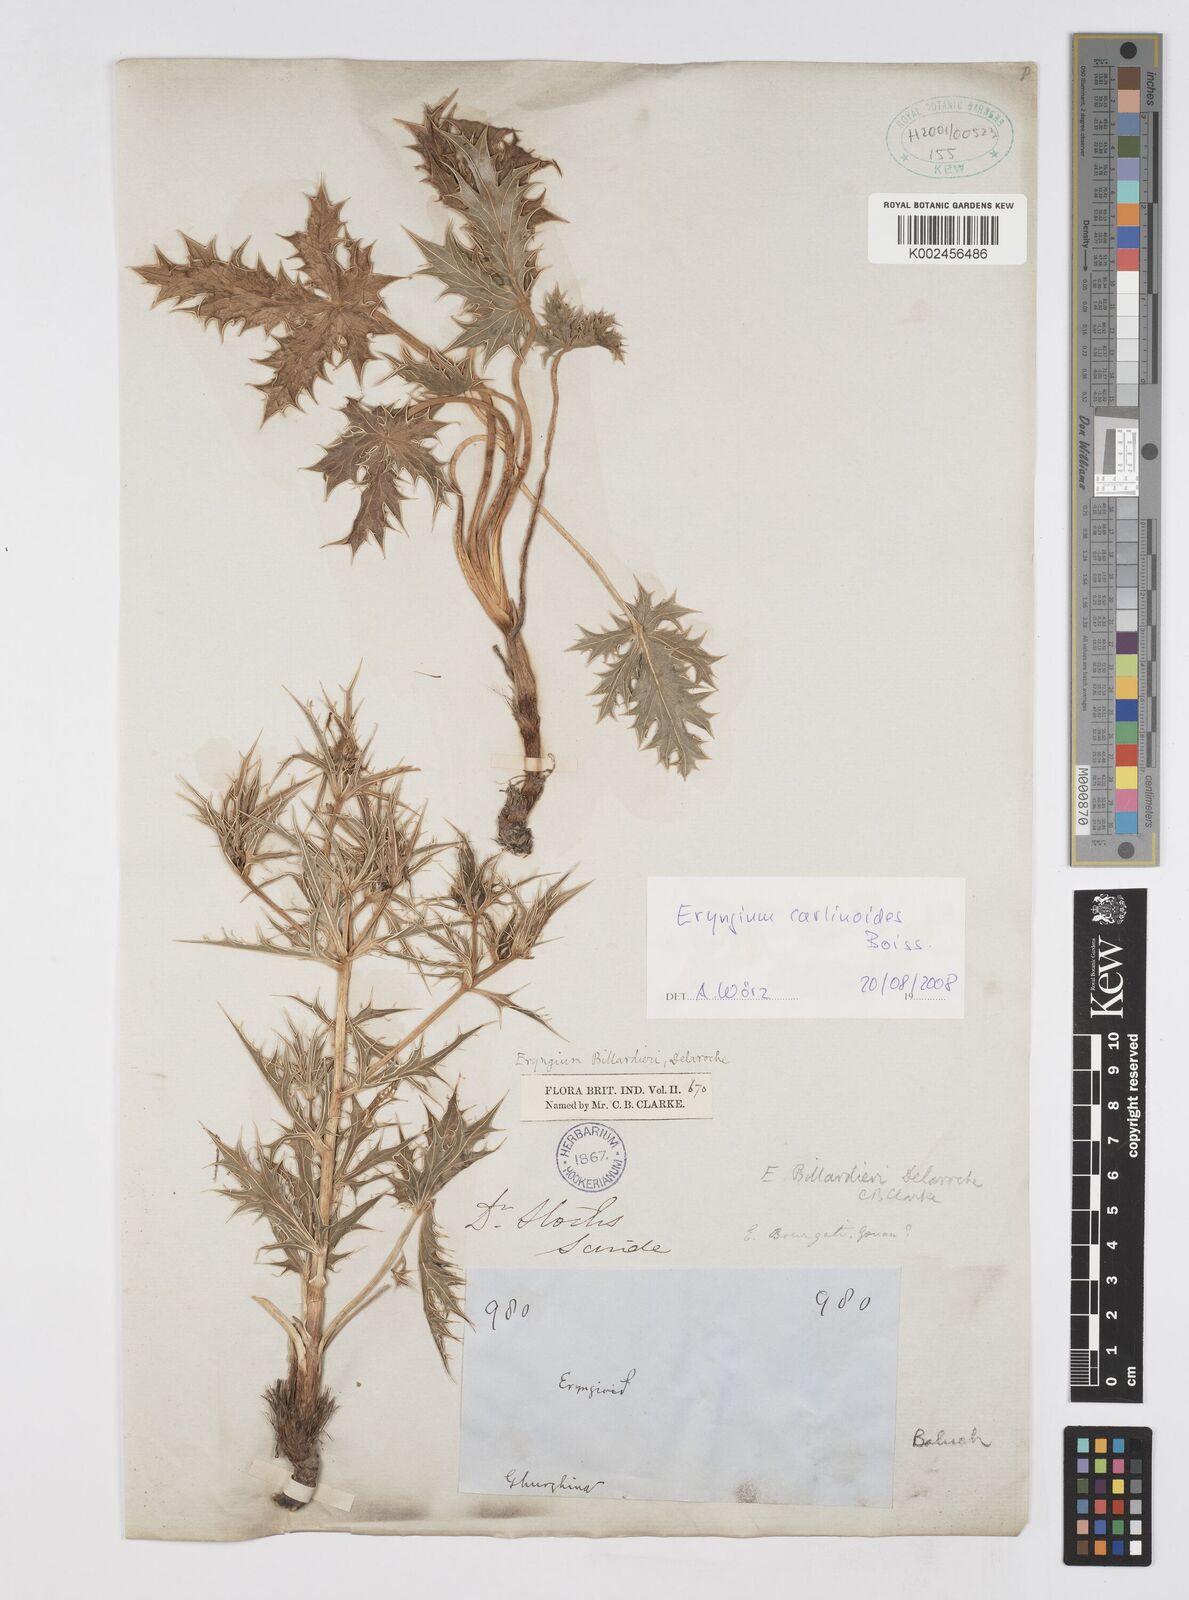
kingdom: Plantae
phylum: Tracheophyta
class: Magnoliopsida
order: Apiales
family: Apiaceae
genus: Eryngium
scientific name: Eryngium carlinoides
